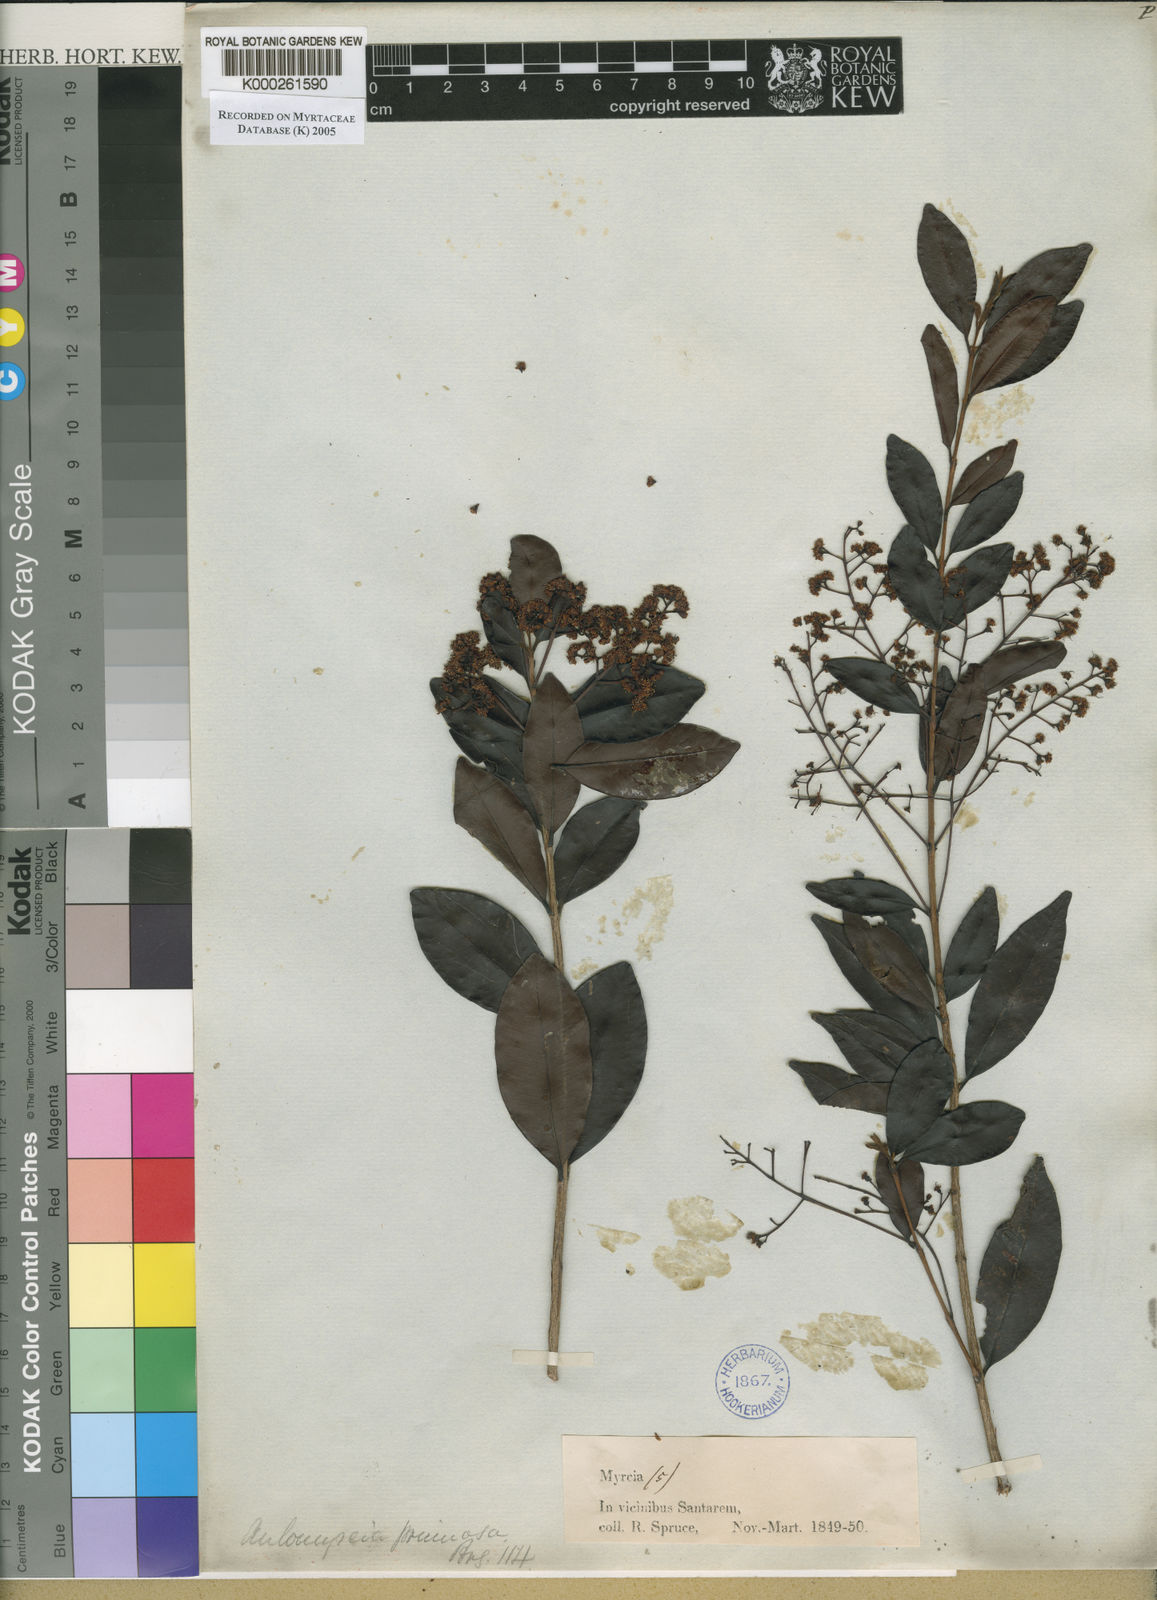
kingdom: Plantae
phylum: Tracheophyta
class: Magnoliopsida
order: Myrtales
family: Myrtaceae
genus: Myrcia
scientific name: Myrcia guianensis
